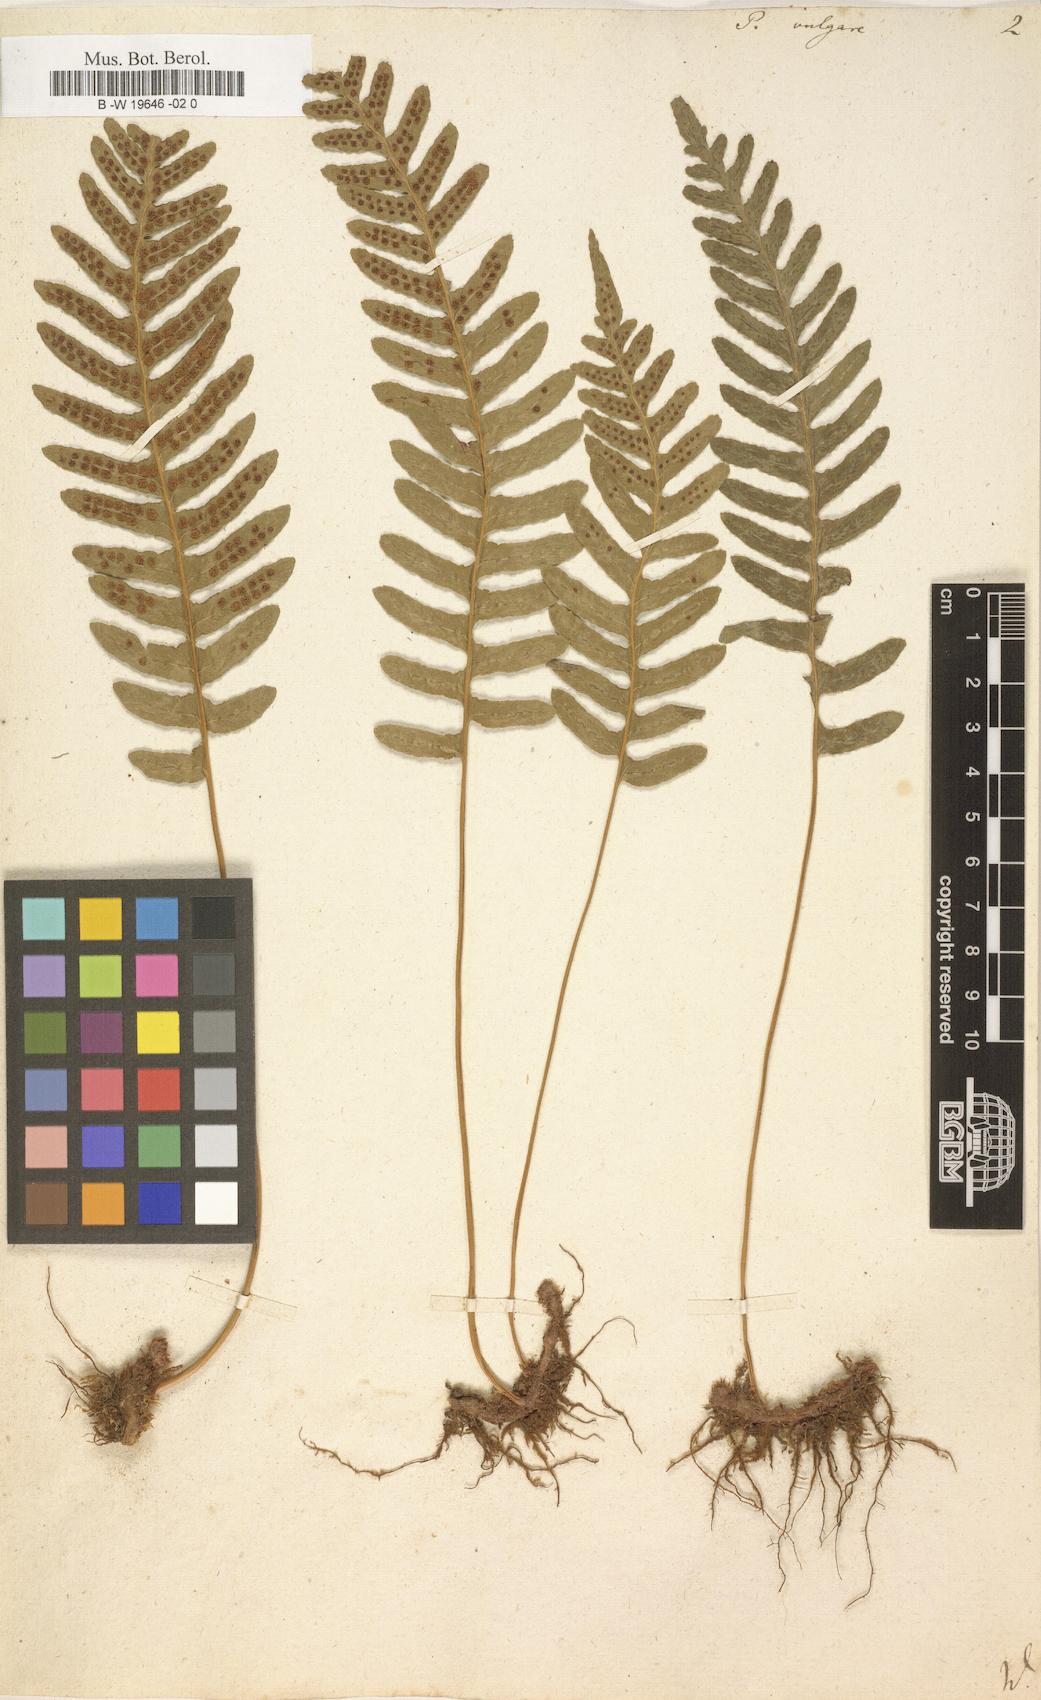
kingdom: Plantae
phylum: Tracheophyta
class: Polypodiopsida
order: Polypodiales
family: Polypodiaceae
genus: Polypodium
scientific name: Polypodium vulgare
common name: Common polypody
